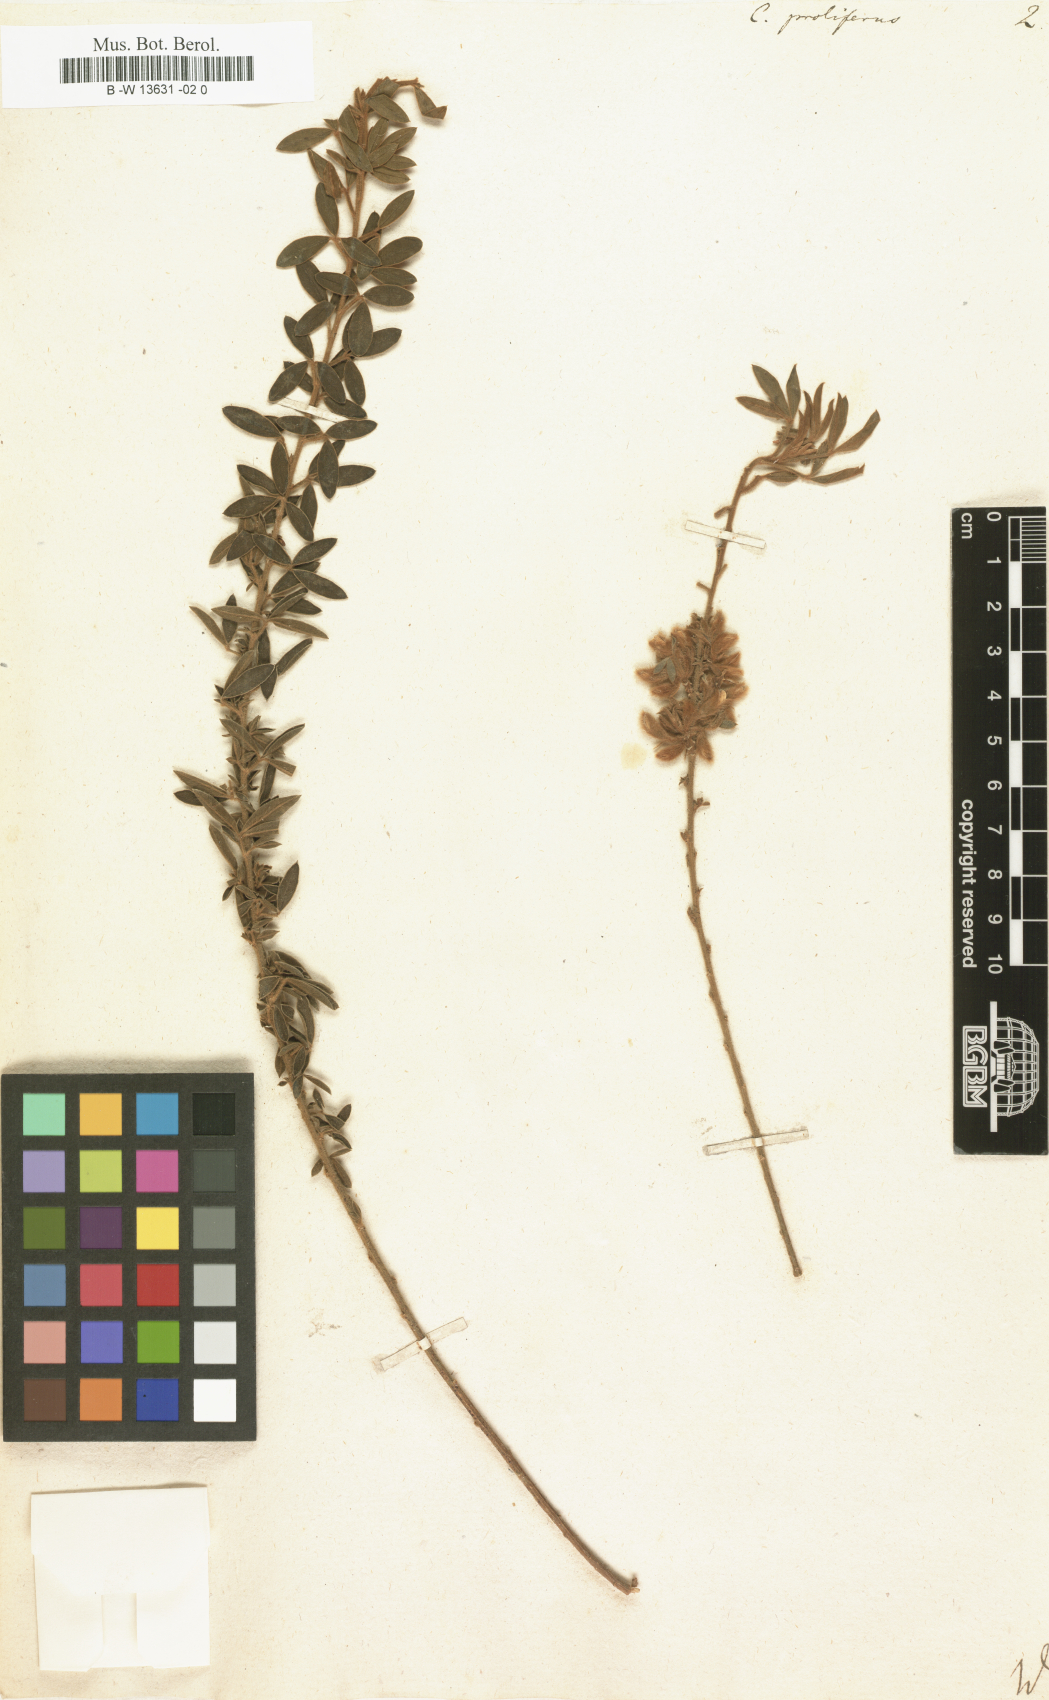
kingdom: Plantae
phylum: Tracheophyta
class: Magnoliopsida
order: Fabales
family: Fabaceae
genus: Cytisus
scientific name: Cytisus proliferus
